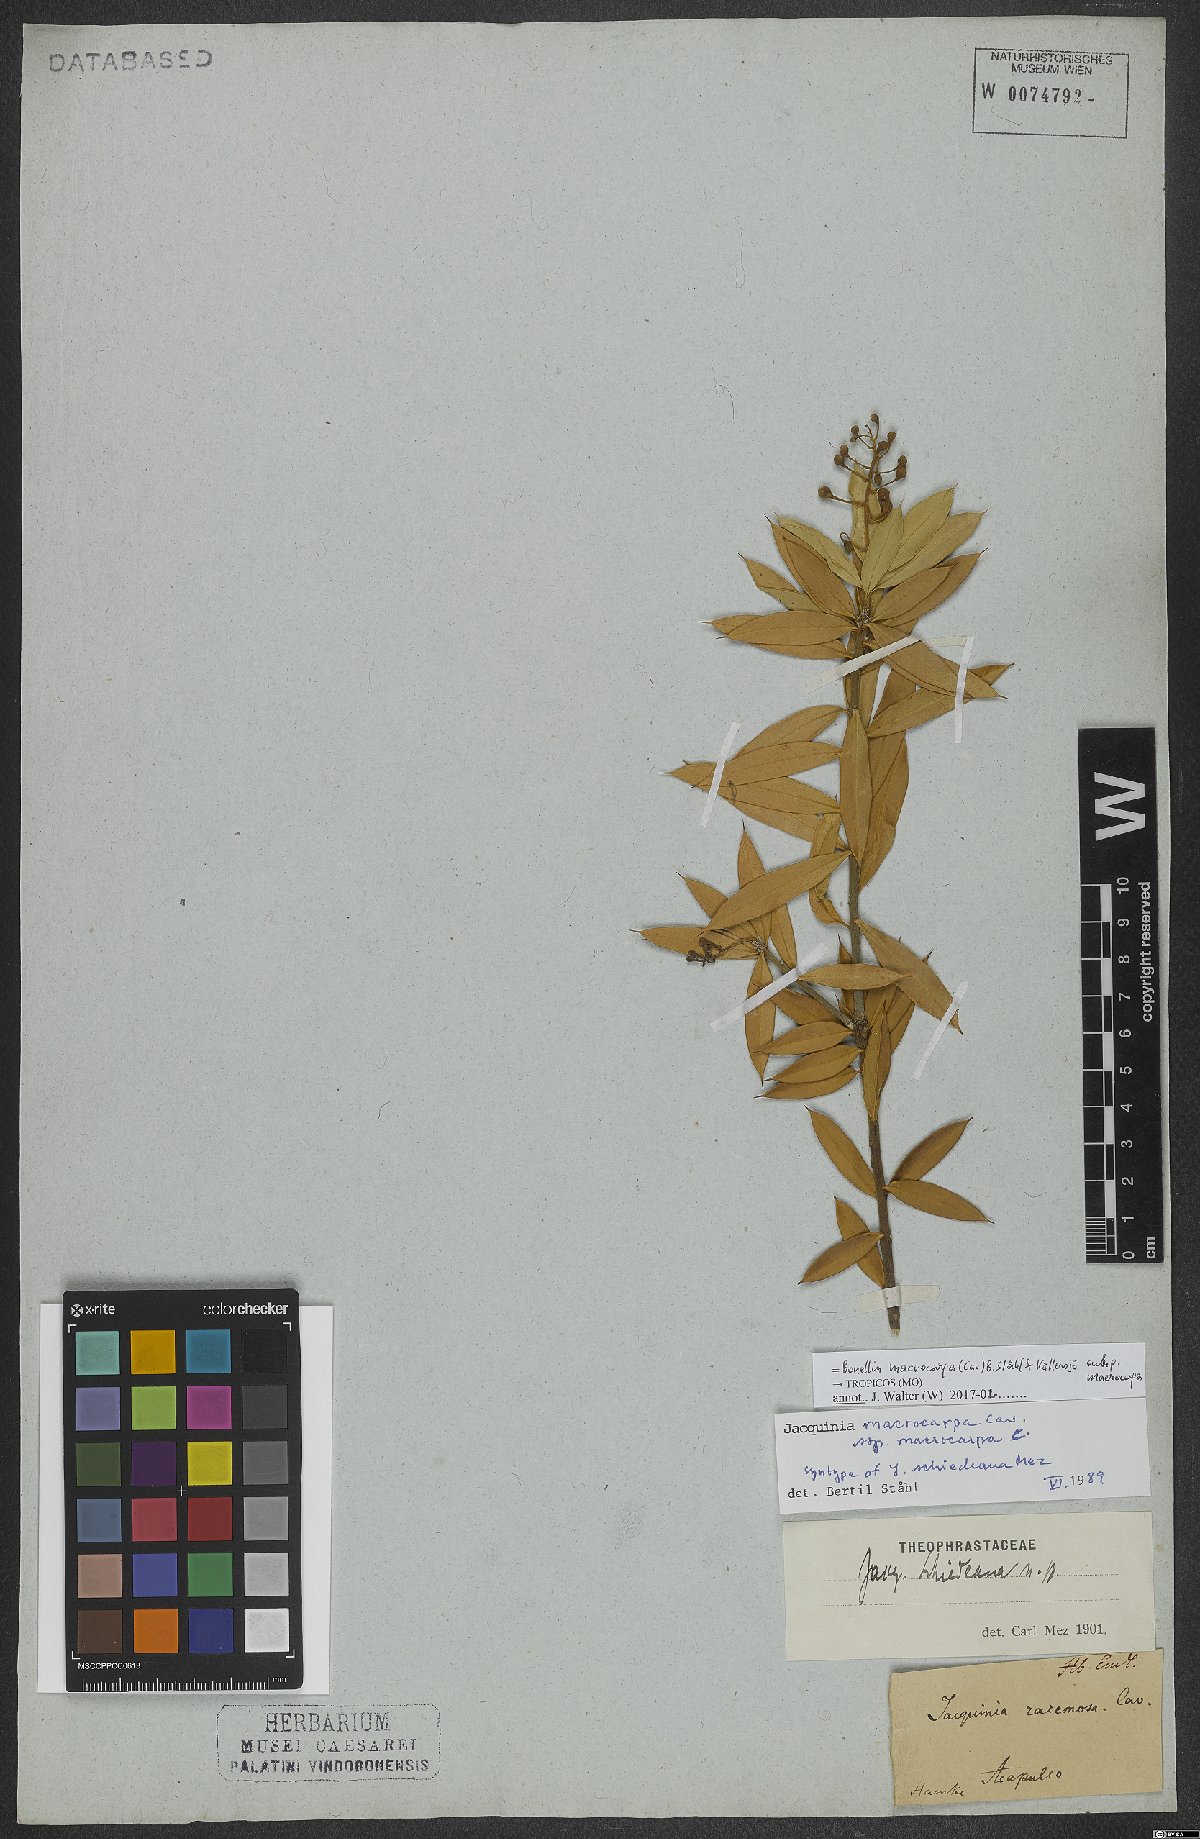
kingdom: Plantae
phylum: Tracheophyta
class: Magnoliopsida
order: Ericales
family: Primulaceae
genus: Bonellia
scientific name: Bonellia macrocarpa
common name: Primrose
